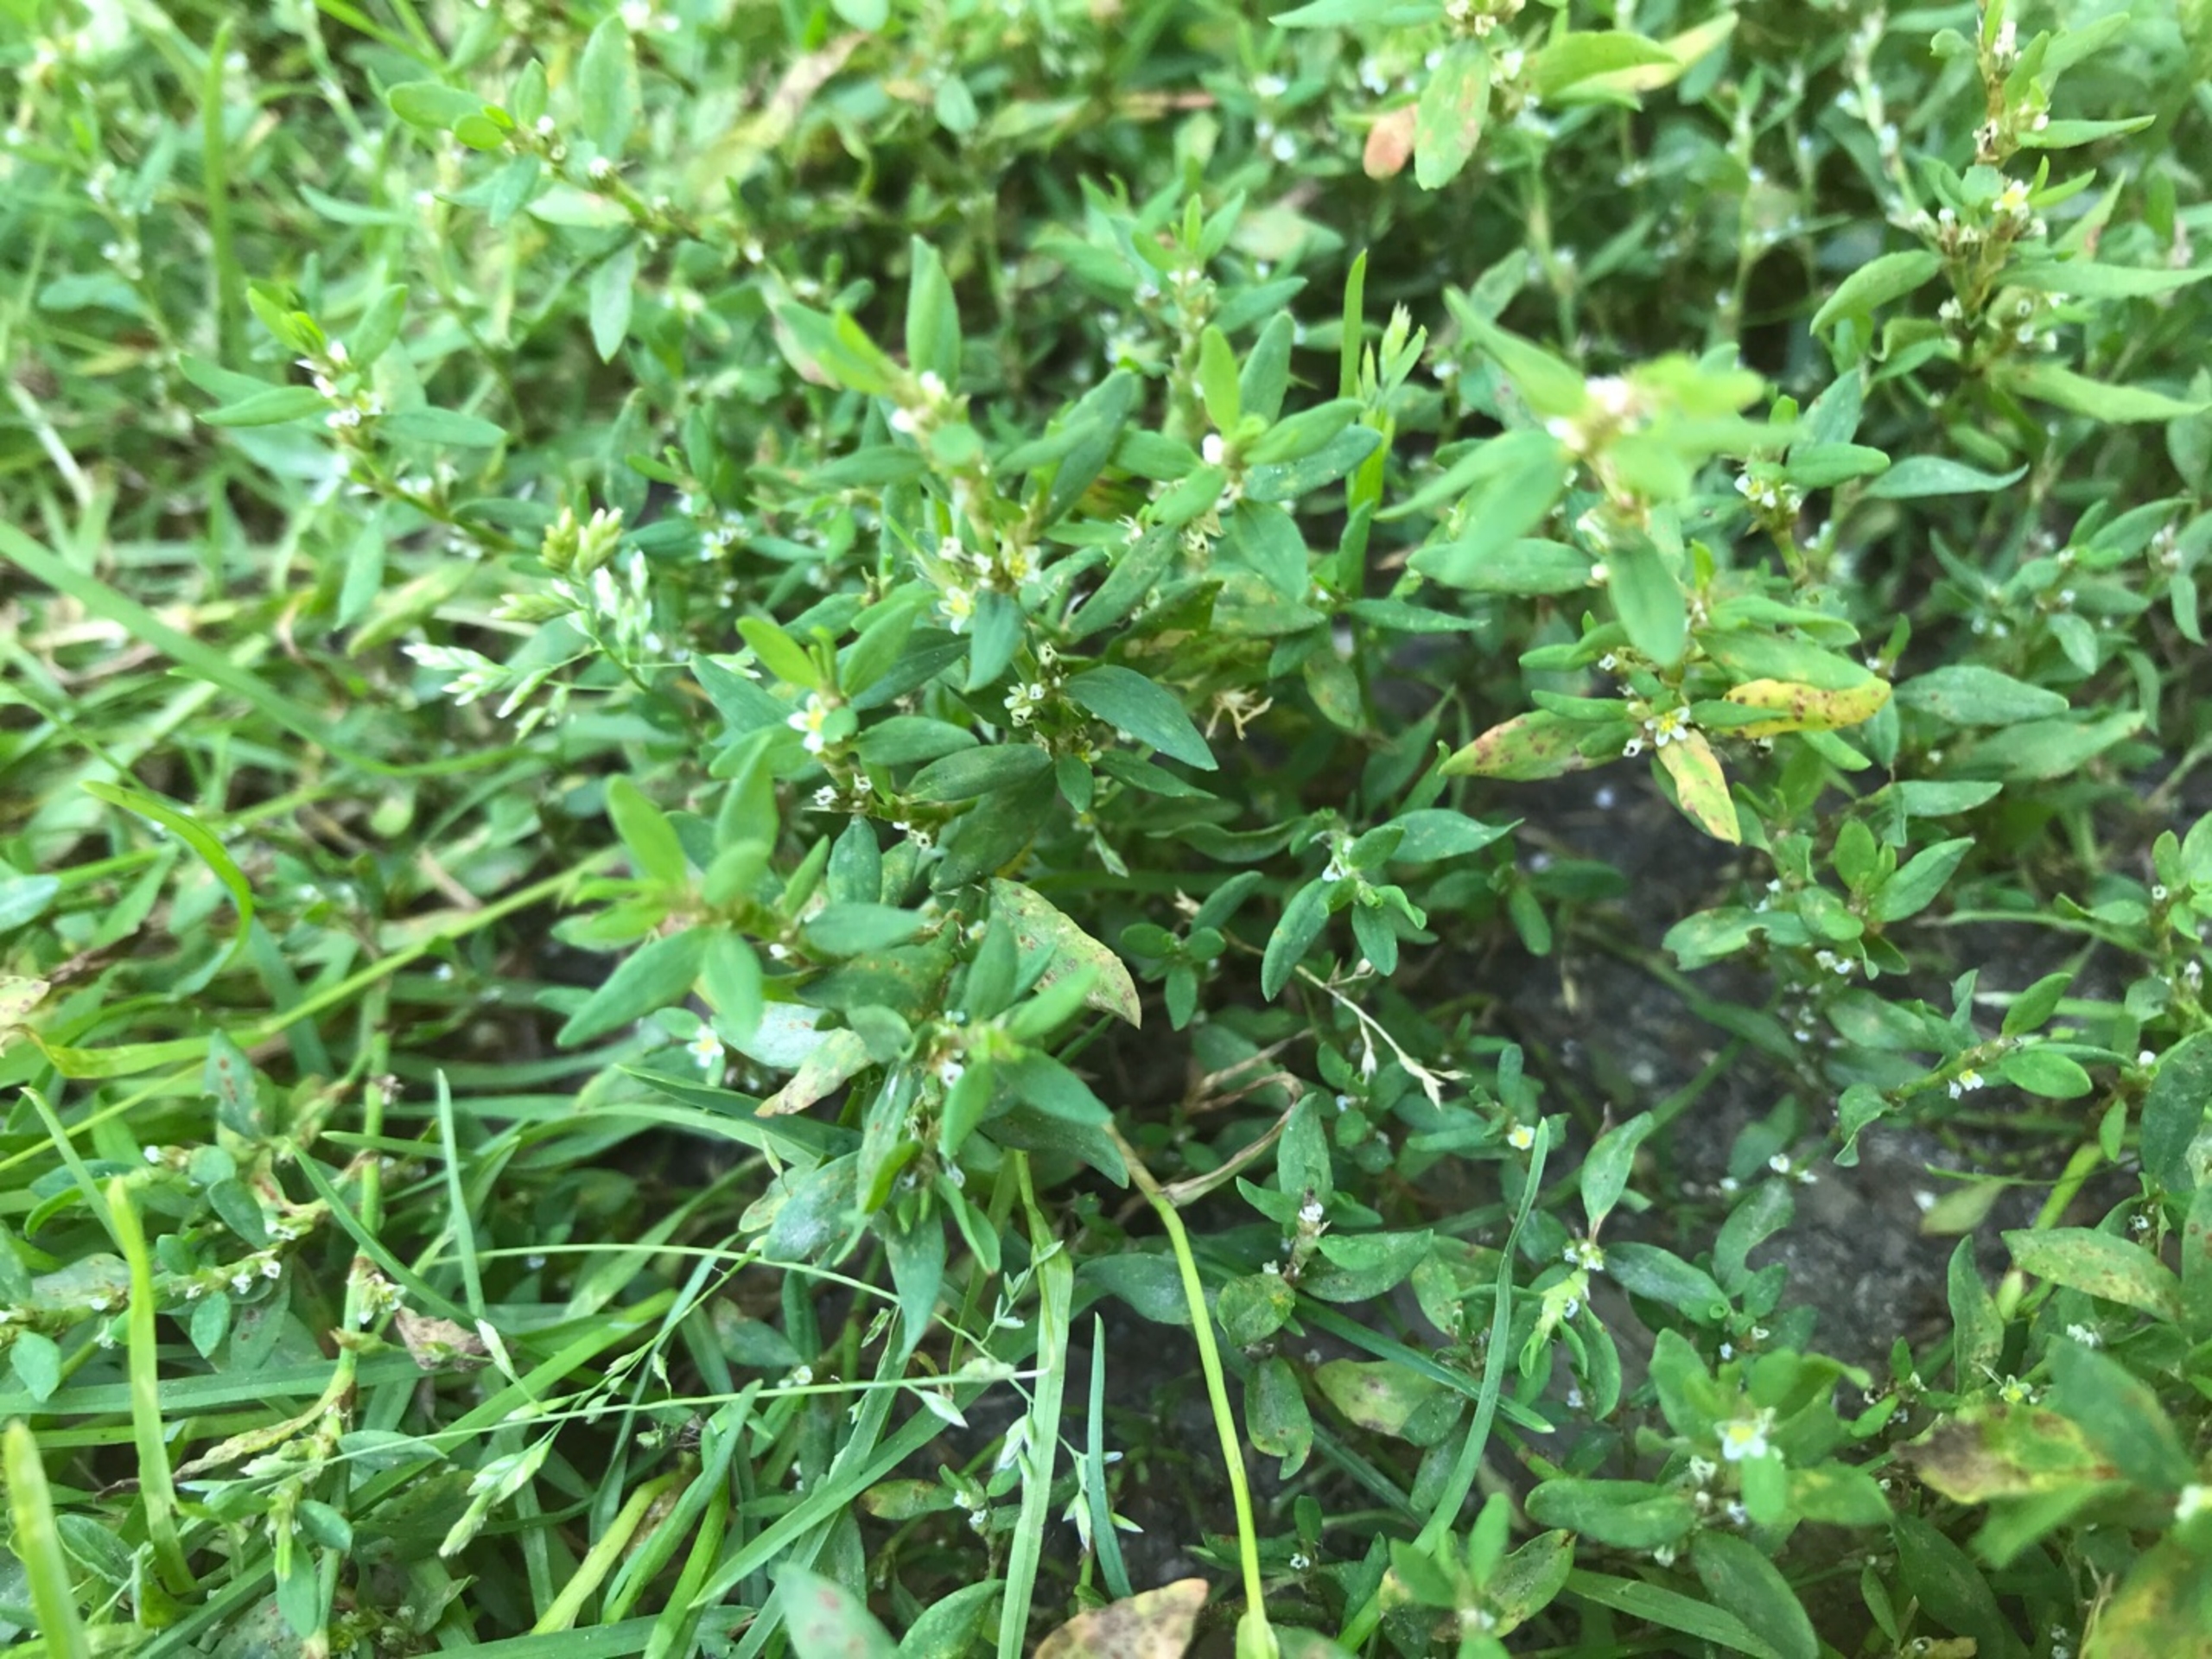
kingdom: Plantae
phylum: Tracheophyta
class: Magnoliopsida
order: Caryophyllales
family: Polygonaceae
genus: Polygonum
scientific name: Polygonum aviculare
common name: Vej-pileurt
